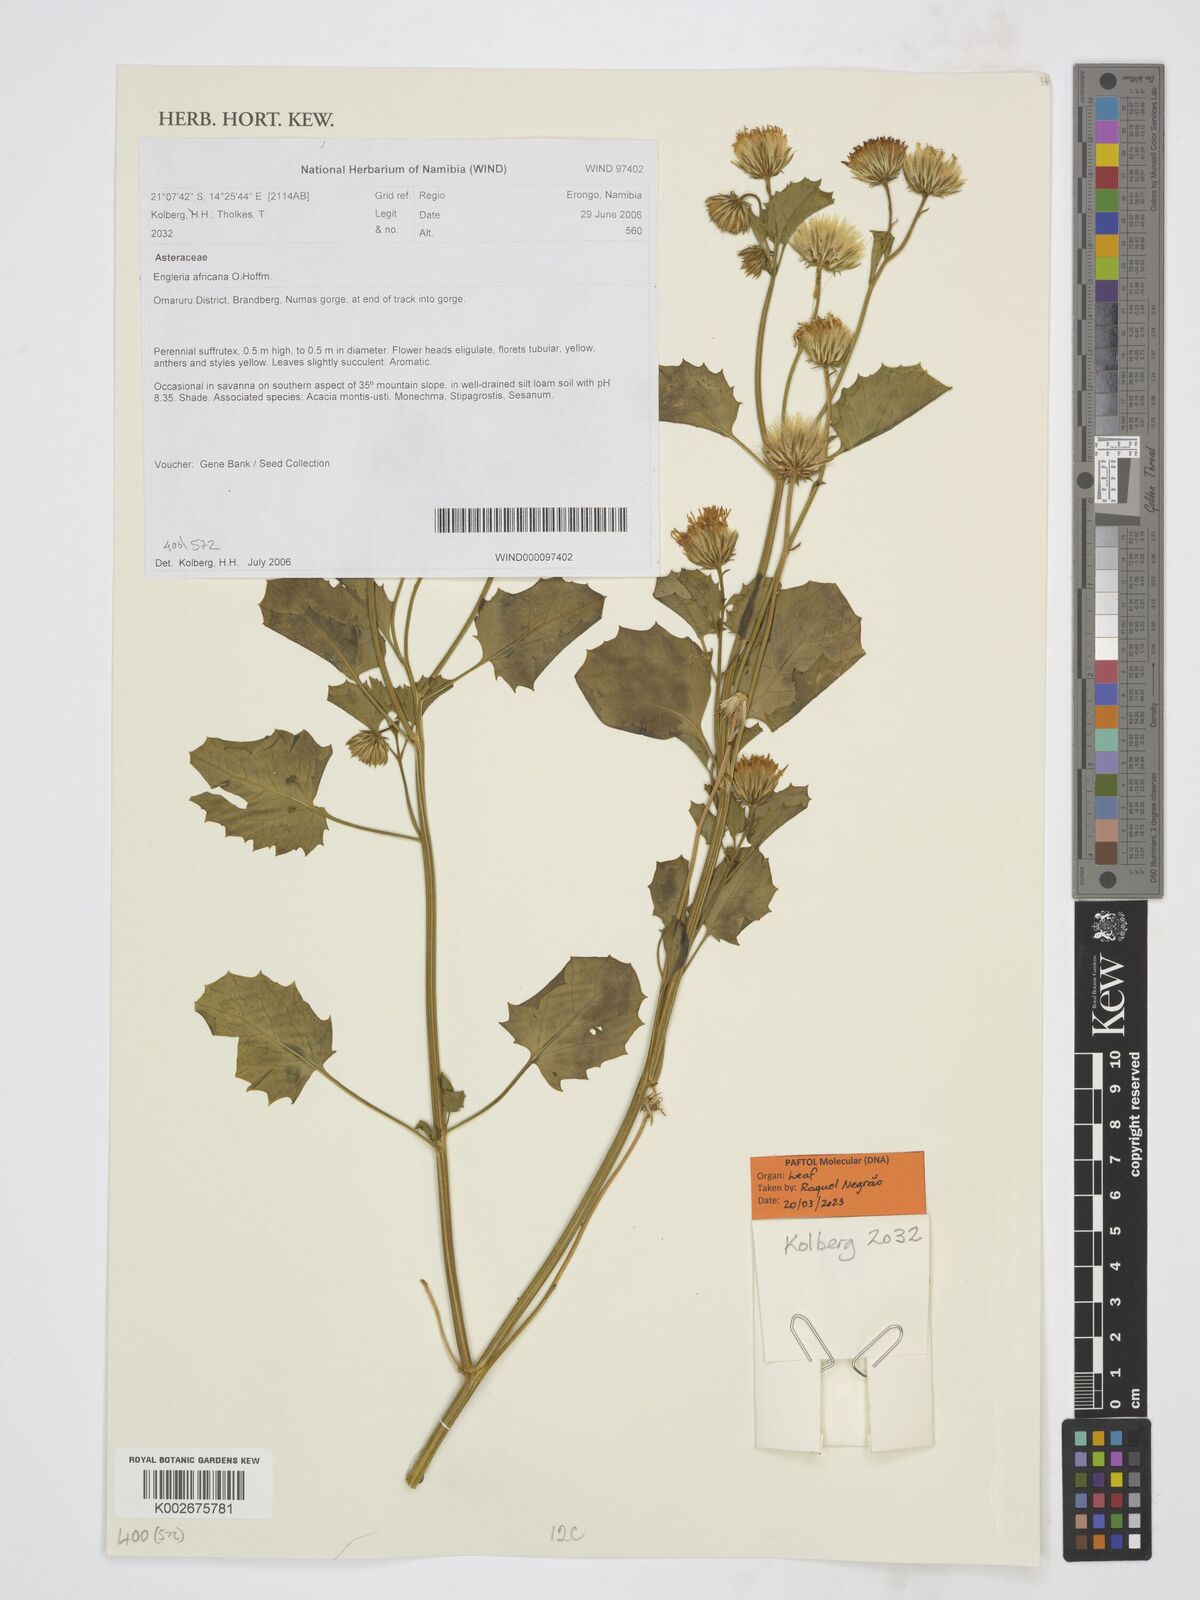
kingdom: Plantae
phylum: Tracheophyta
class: Magnoliopsida
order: Asterales
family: Asteraceae
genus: Engleria
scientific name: Engleria africana
